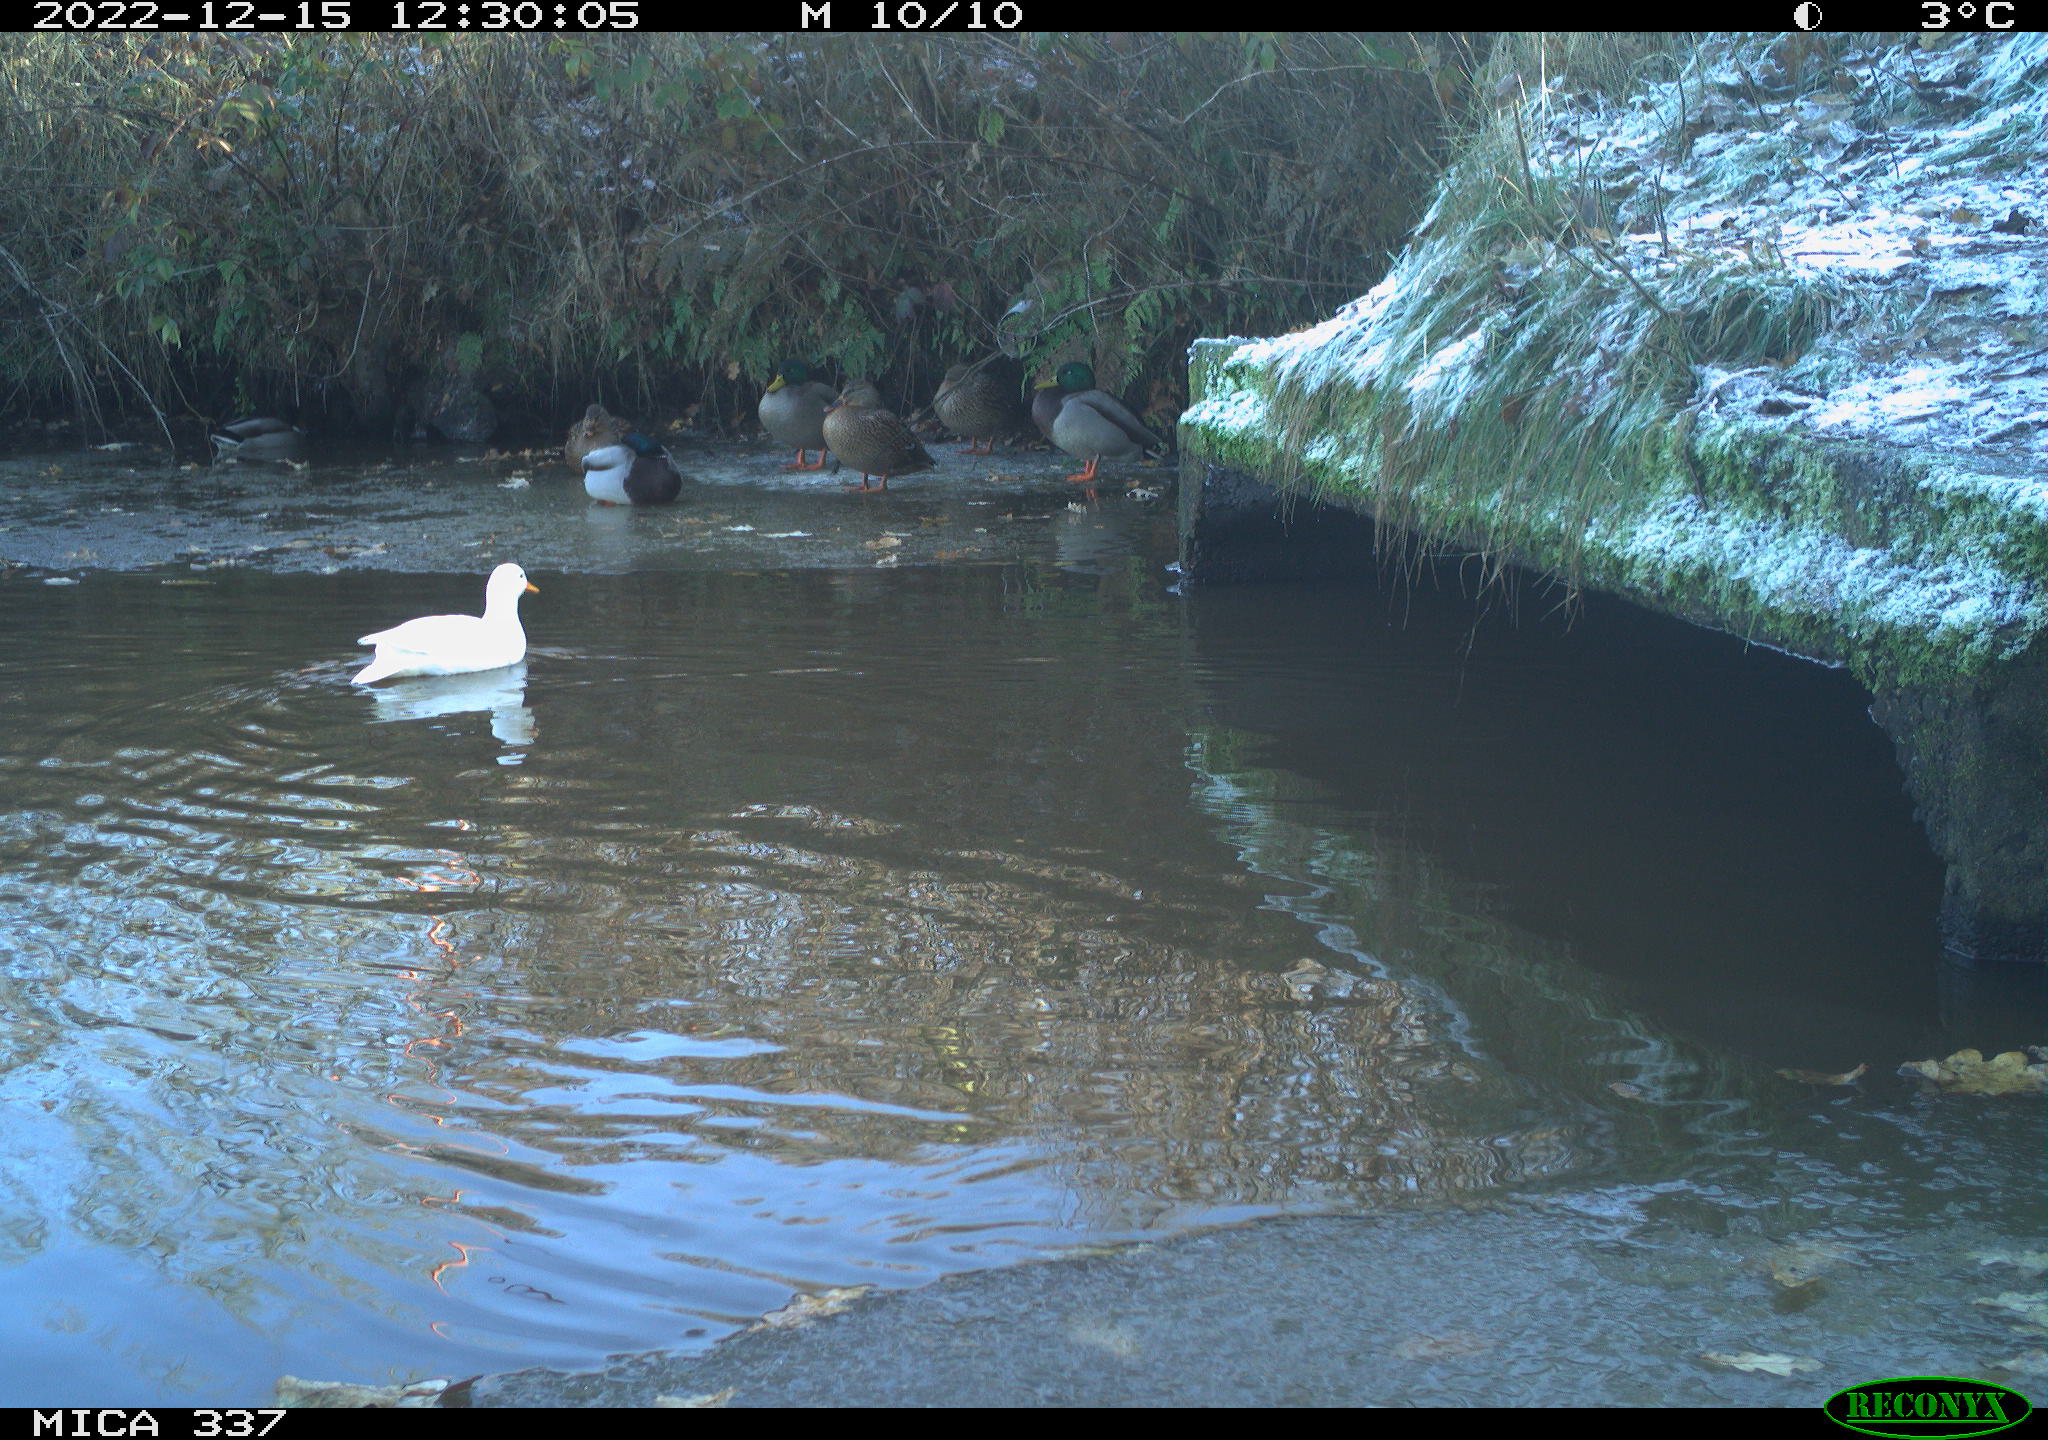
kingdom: Animalia
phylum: Chordata
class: Aves
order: Anseriformes
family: Anatidae
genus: Anas
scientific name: Anas platyrhynchos
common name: Mallard
